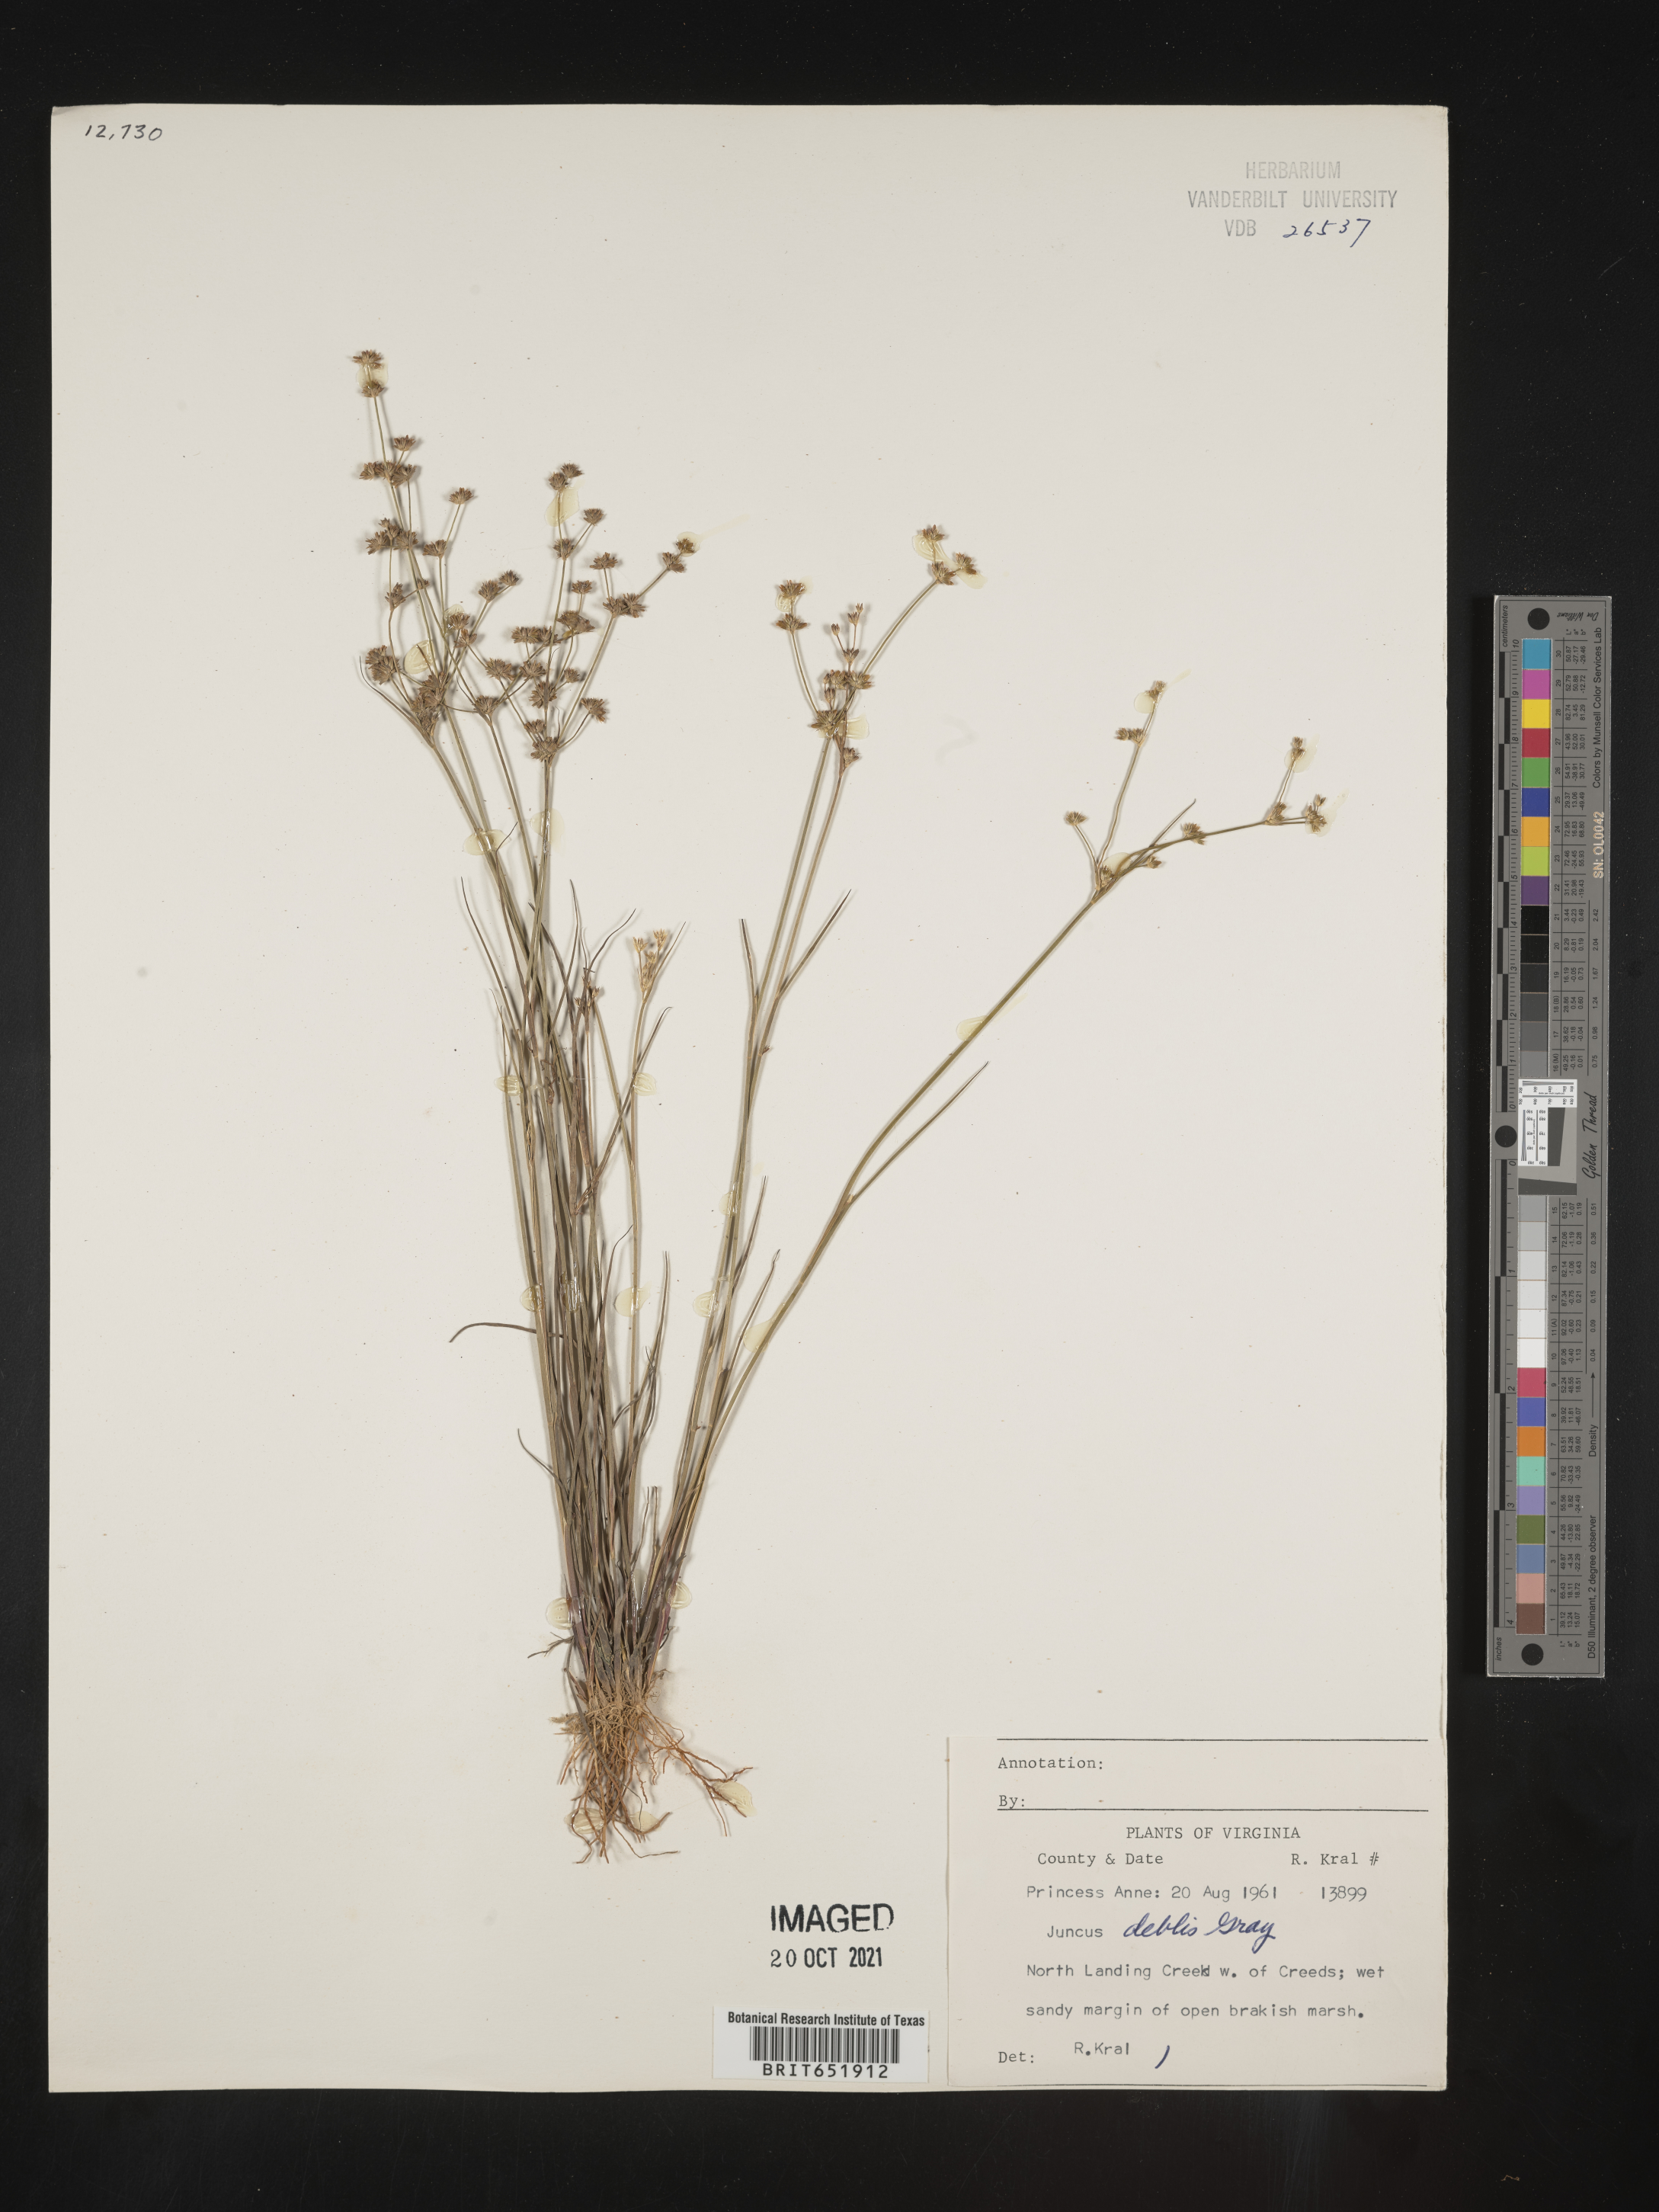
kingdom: Plantae
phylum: Tracheophyta
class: Liliopsida
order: Poales
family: Juncaceae
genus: Juncus
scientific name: Juncus debilis
